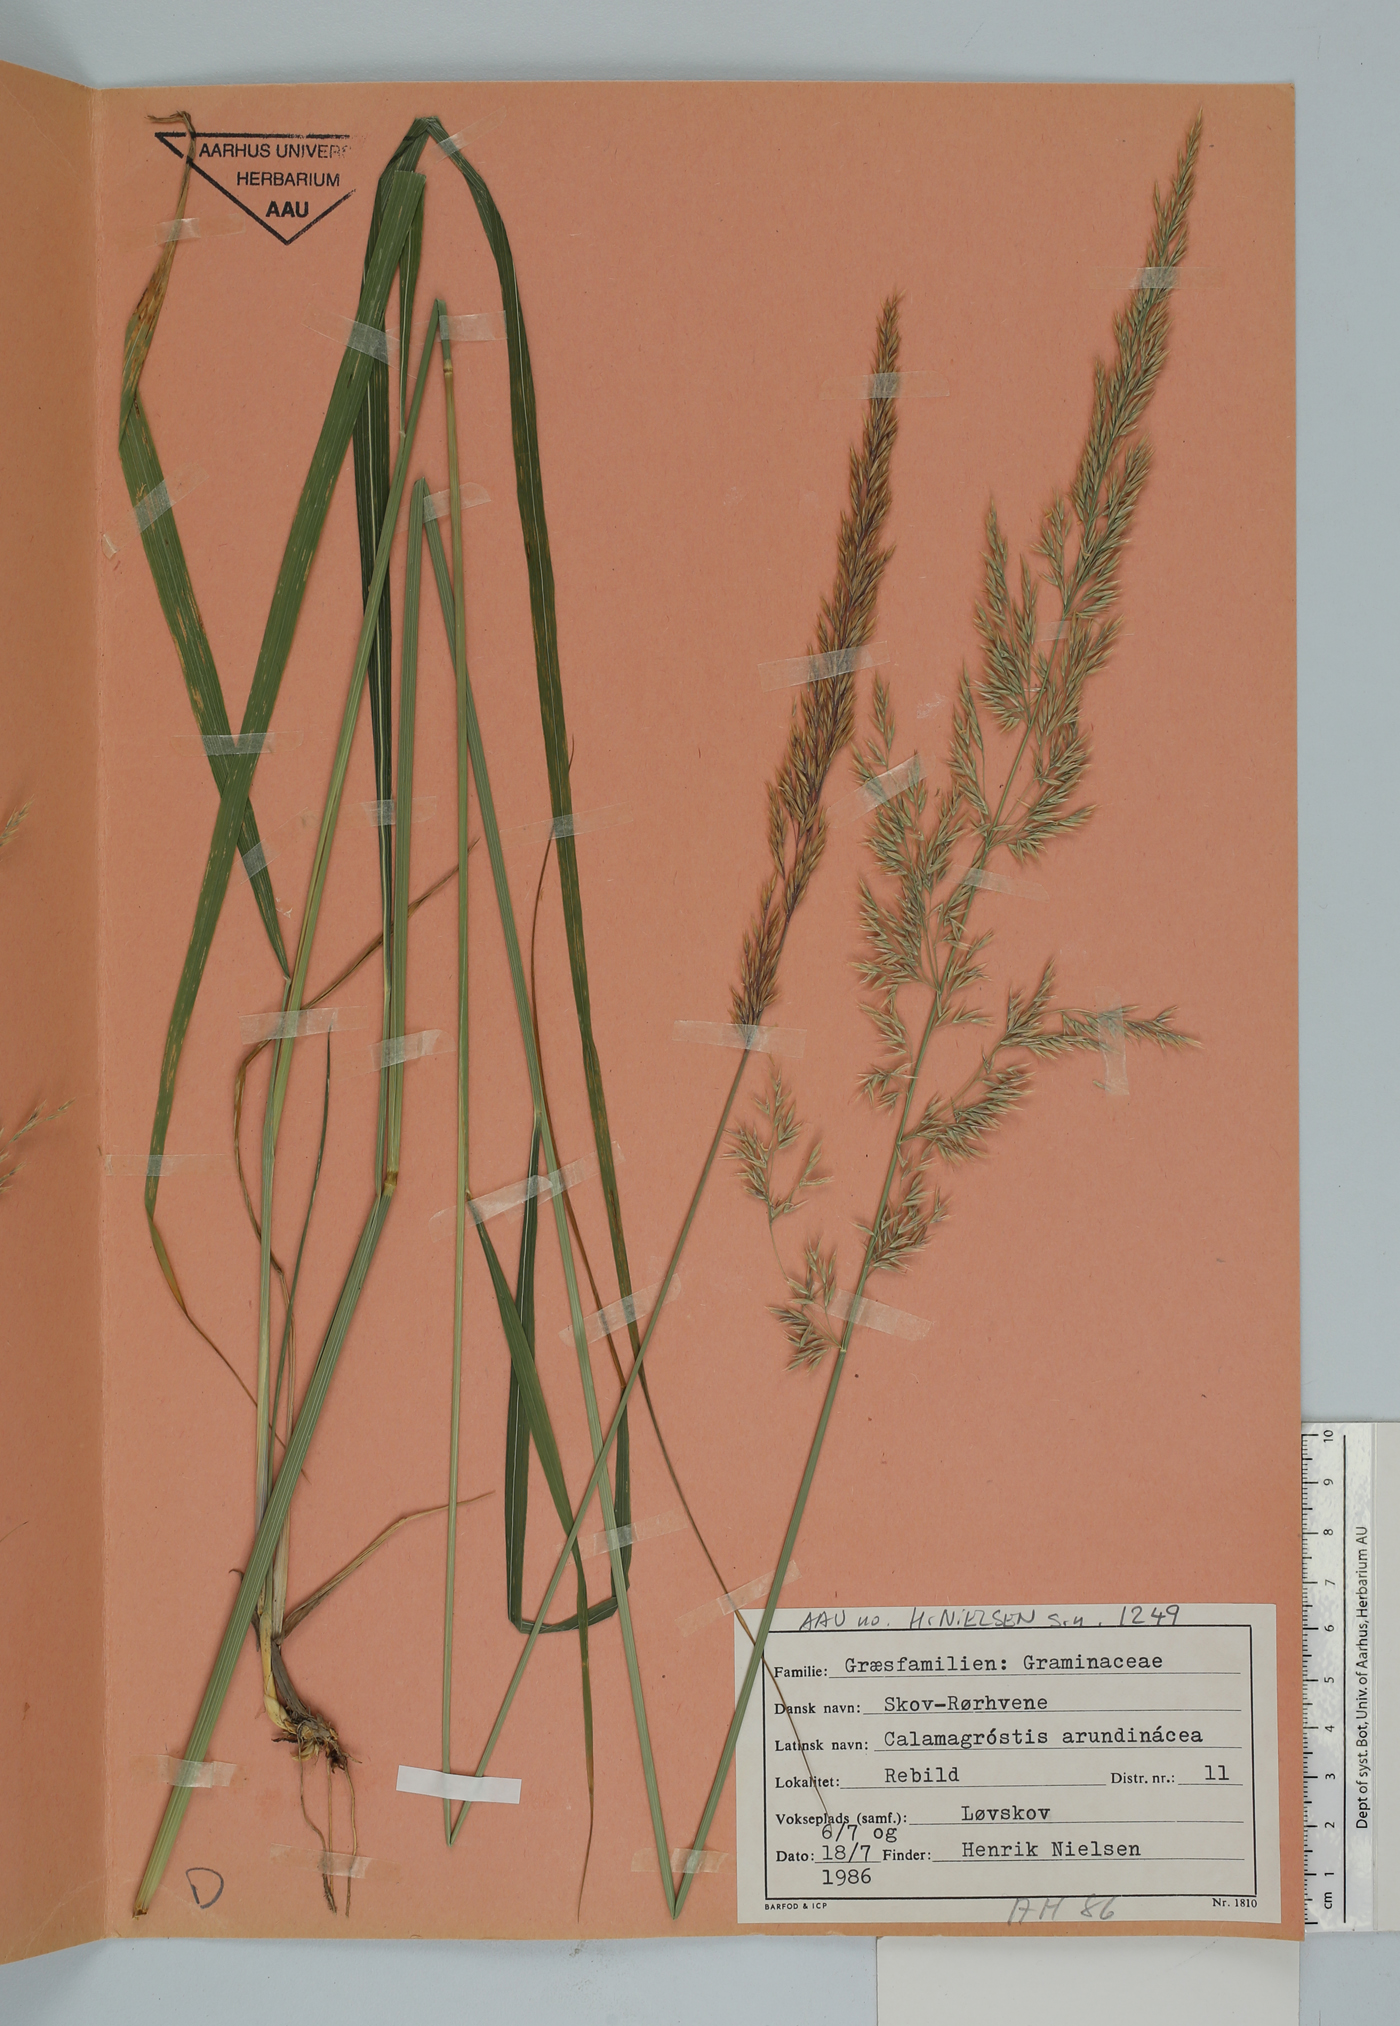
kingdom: Plantae
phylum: Tracheophyta
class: Liliopsida
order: Poales
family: Poaceae
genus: Calamagrostis
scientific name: Calamagrostis arundinacea
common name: Metskastik
